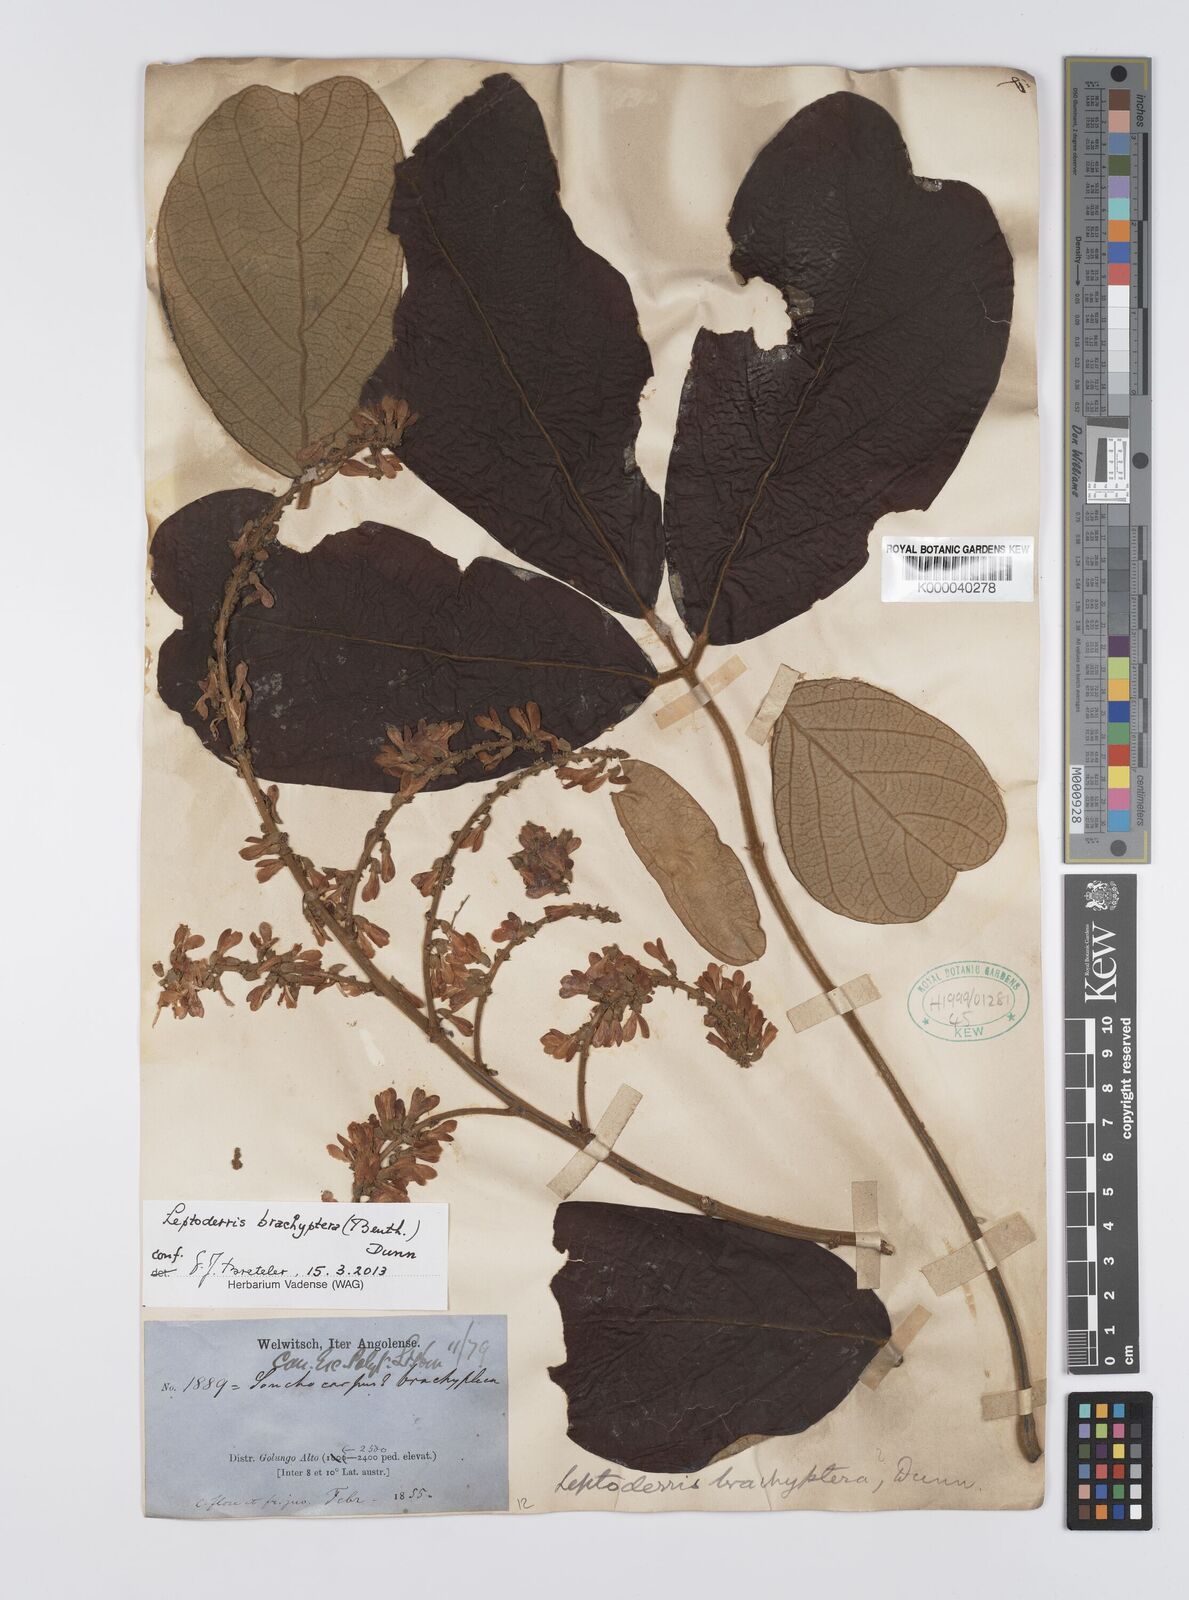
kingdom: Plantae
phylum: Tracheophyta
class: Magnoliopsida
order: Fabales
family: Fabaceae
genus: Leptoderris
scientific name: Leptoderris brachyptera
